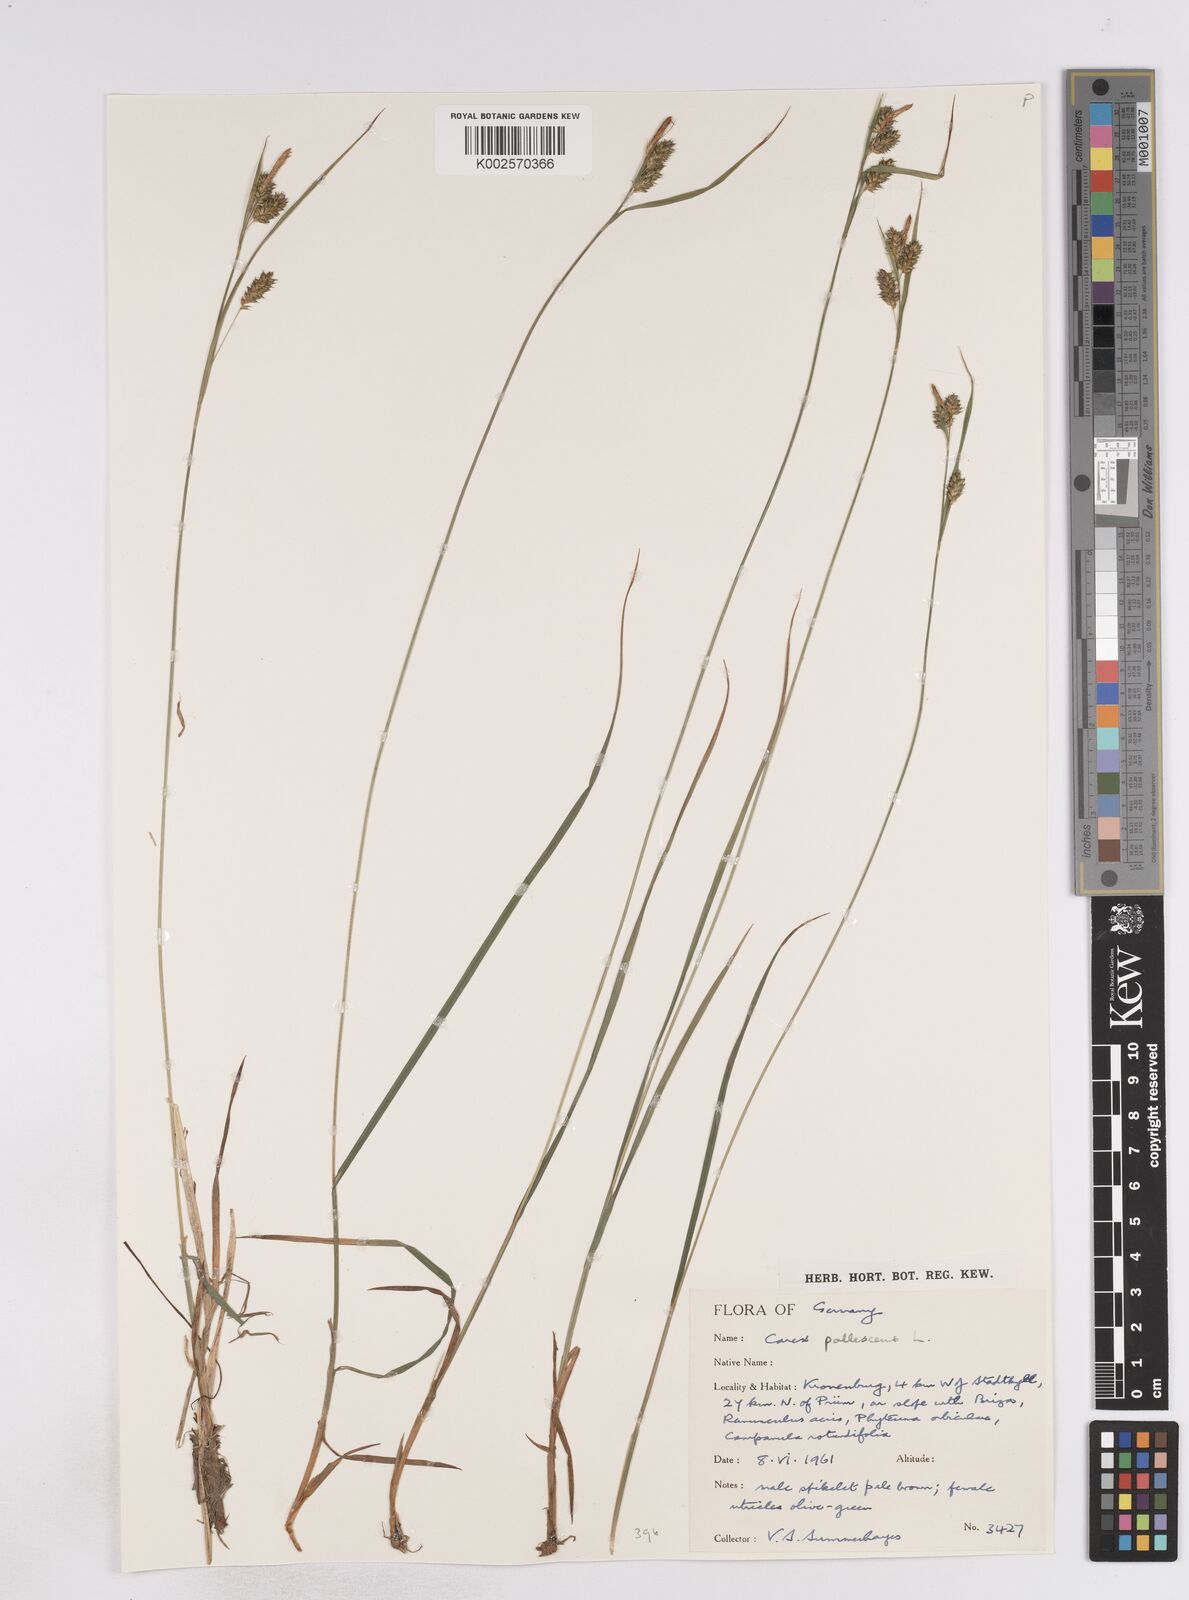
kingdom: Plantae
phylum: Tracheophyta
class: Liliopsida
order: Poales
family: Cyperaceae
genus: Carex
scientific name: Carex pallescens
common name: Pale sedge
